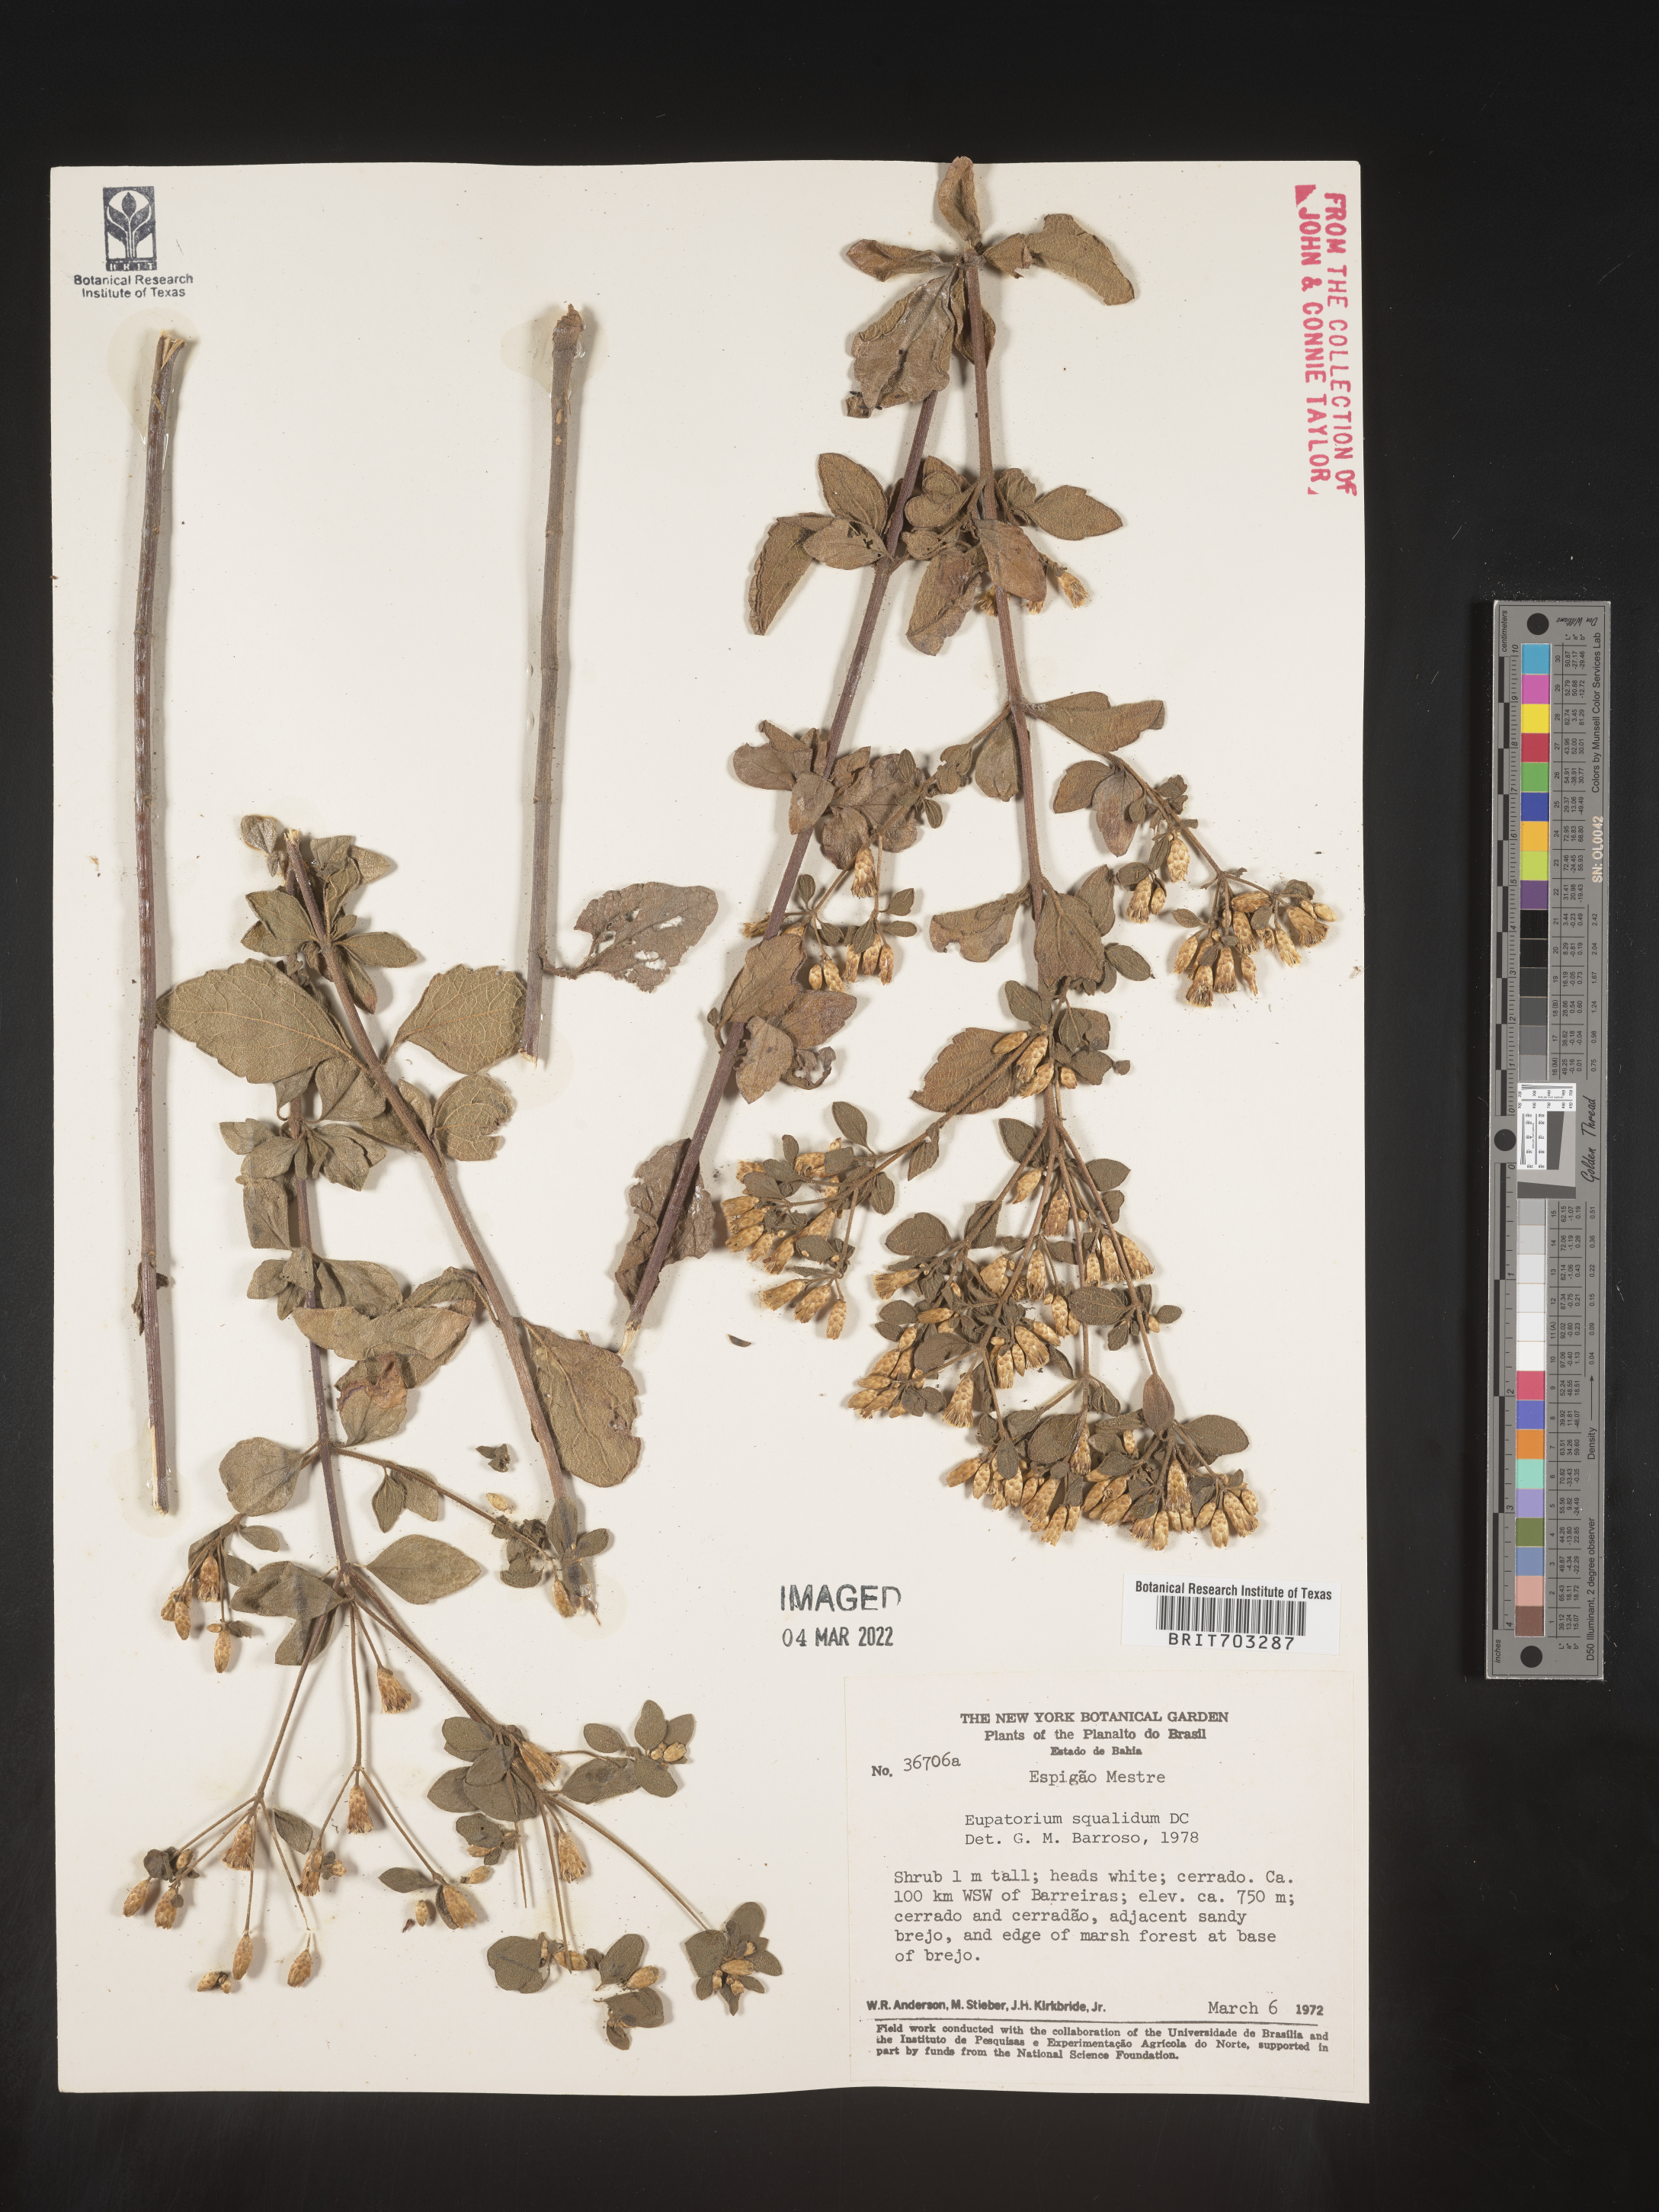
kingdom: Plantae
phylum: Tracheophyta
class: Magnoliopsida
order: Asterales
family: Asteraceae
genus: Eupatorium
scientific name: Eupatorium
